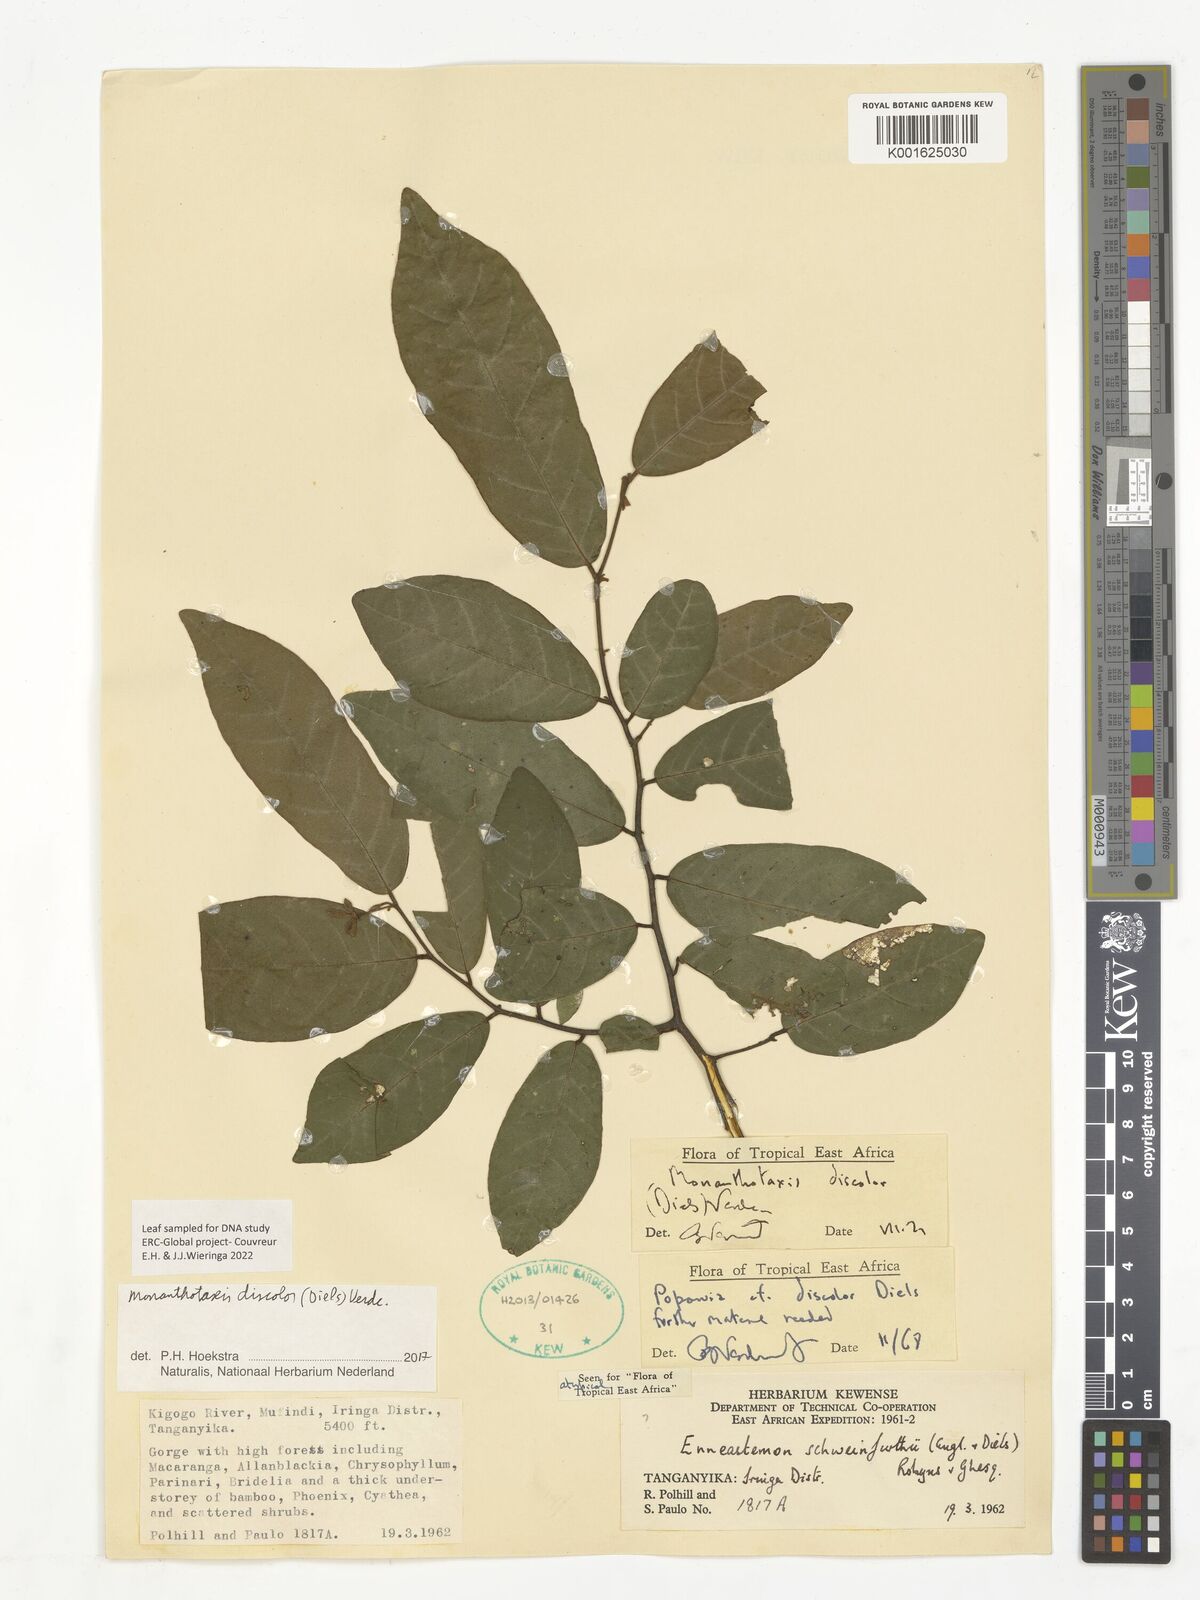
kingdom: Plantae
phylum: Tracheophyta
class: Magnoliopsida
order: Magnoliales
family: Annonaceae
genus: Monanthotaxis
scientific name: Monanthotaxis discolor
